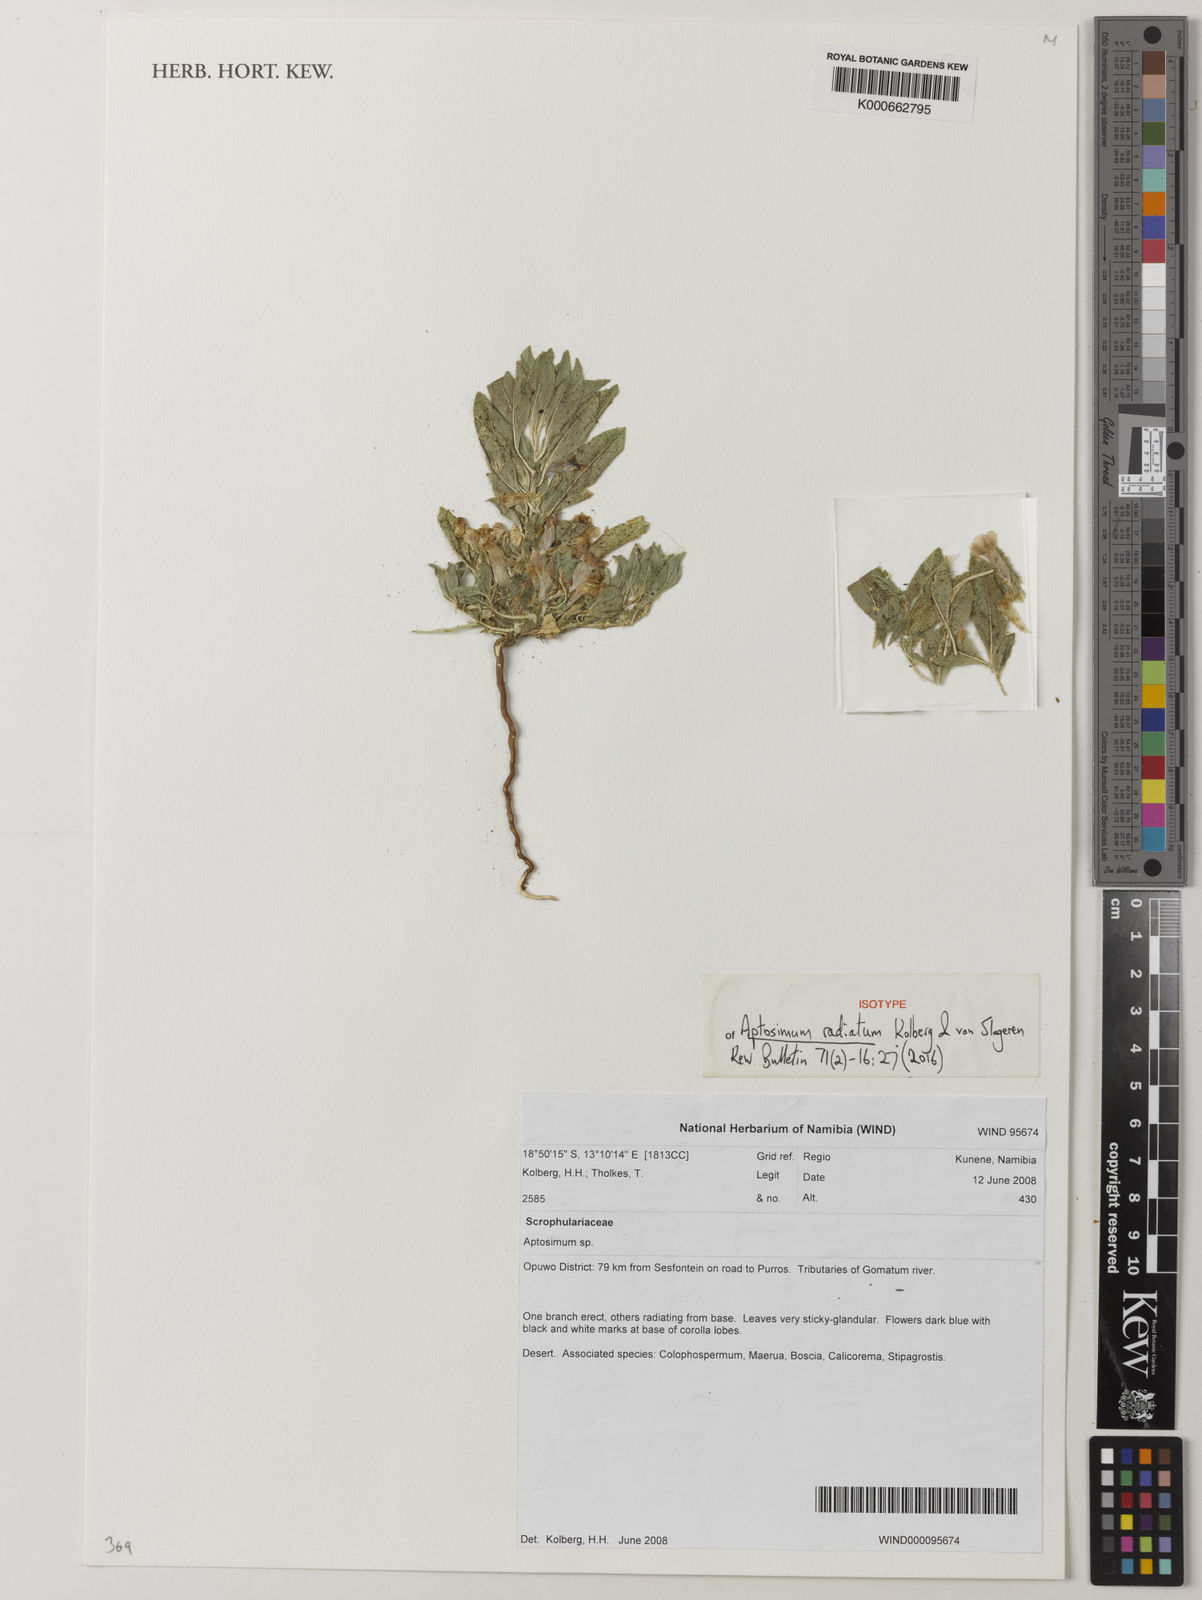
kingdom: Plantae
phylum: Tracheophyta
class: Magnoliopsida
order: Lamiales
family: Scrophulariaceae
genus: Aptosimum
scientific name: Aptosimum
